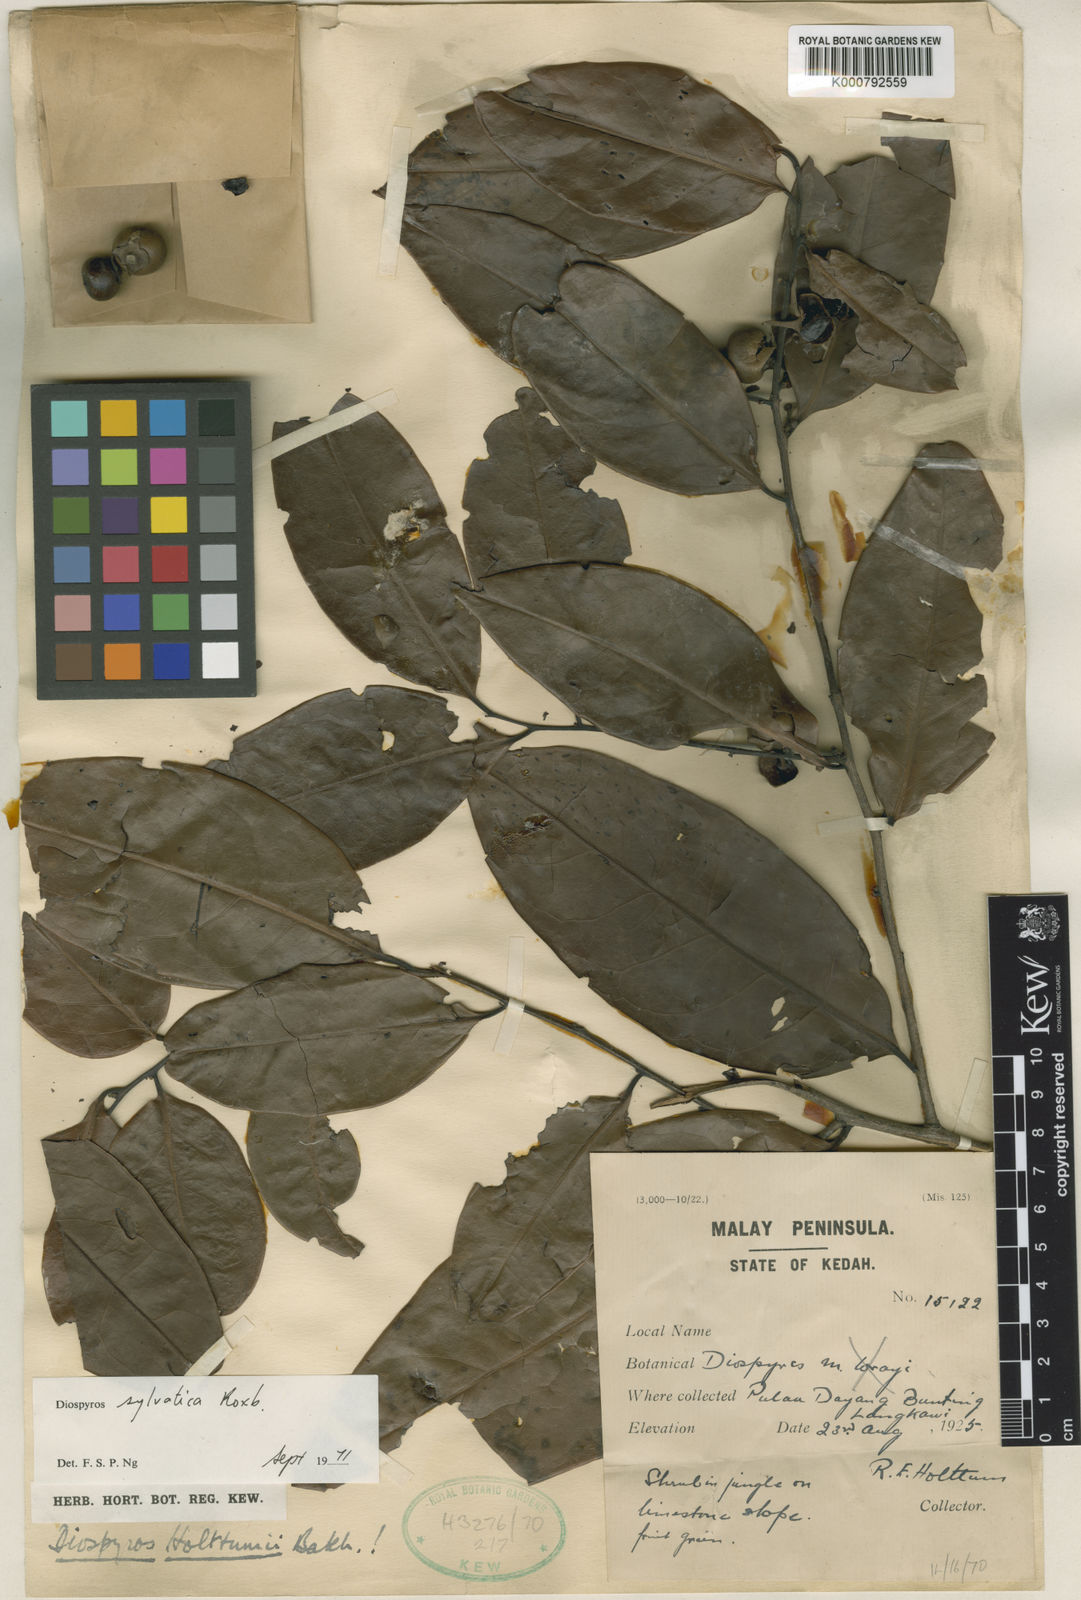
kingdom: Plantae
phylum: Tracheophyta
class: Magnoliopsida
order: Ericales
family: Ebenaceae
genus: Diospyros
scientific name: Diospyros holttumii
